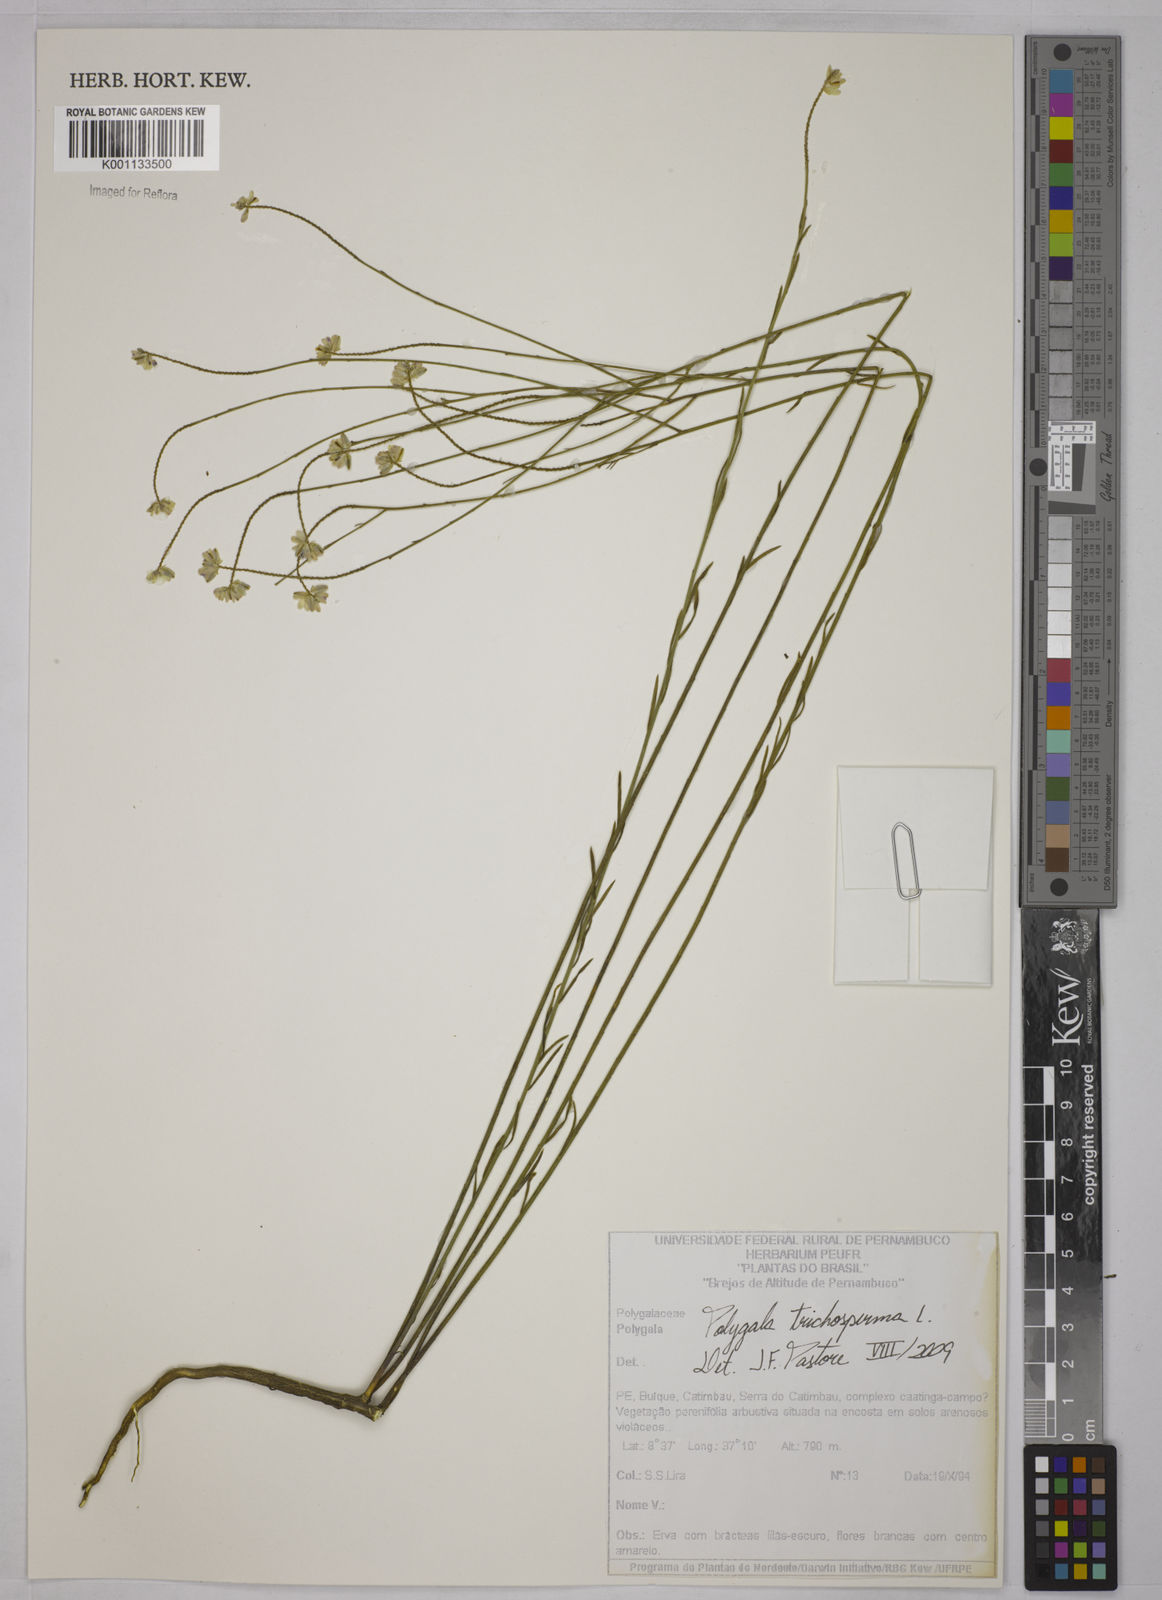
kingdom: Plantae
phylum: Tracheophyta
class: Magnoliopsida
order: Fabales
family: Polygalaceae
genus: Polygala
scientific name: Polygala trichosperma
